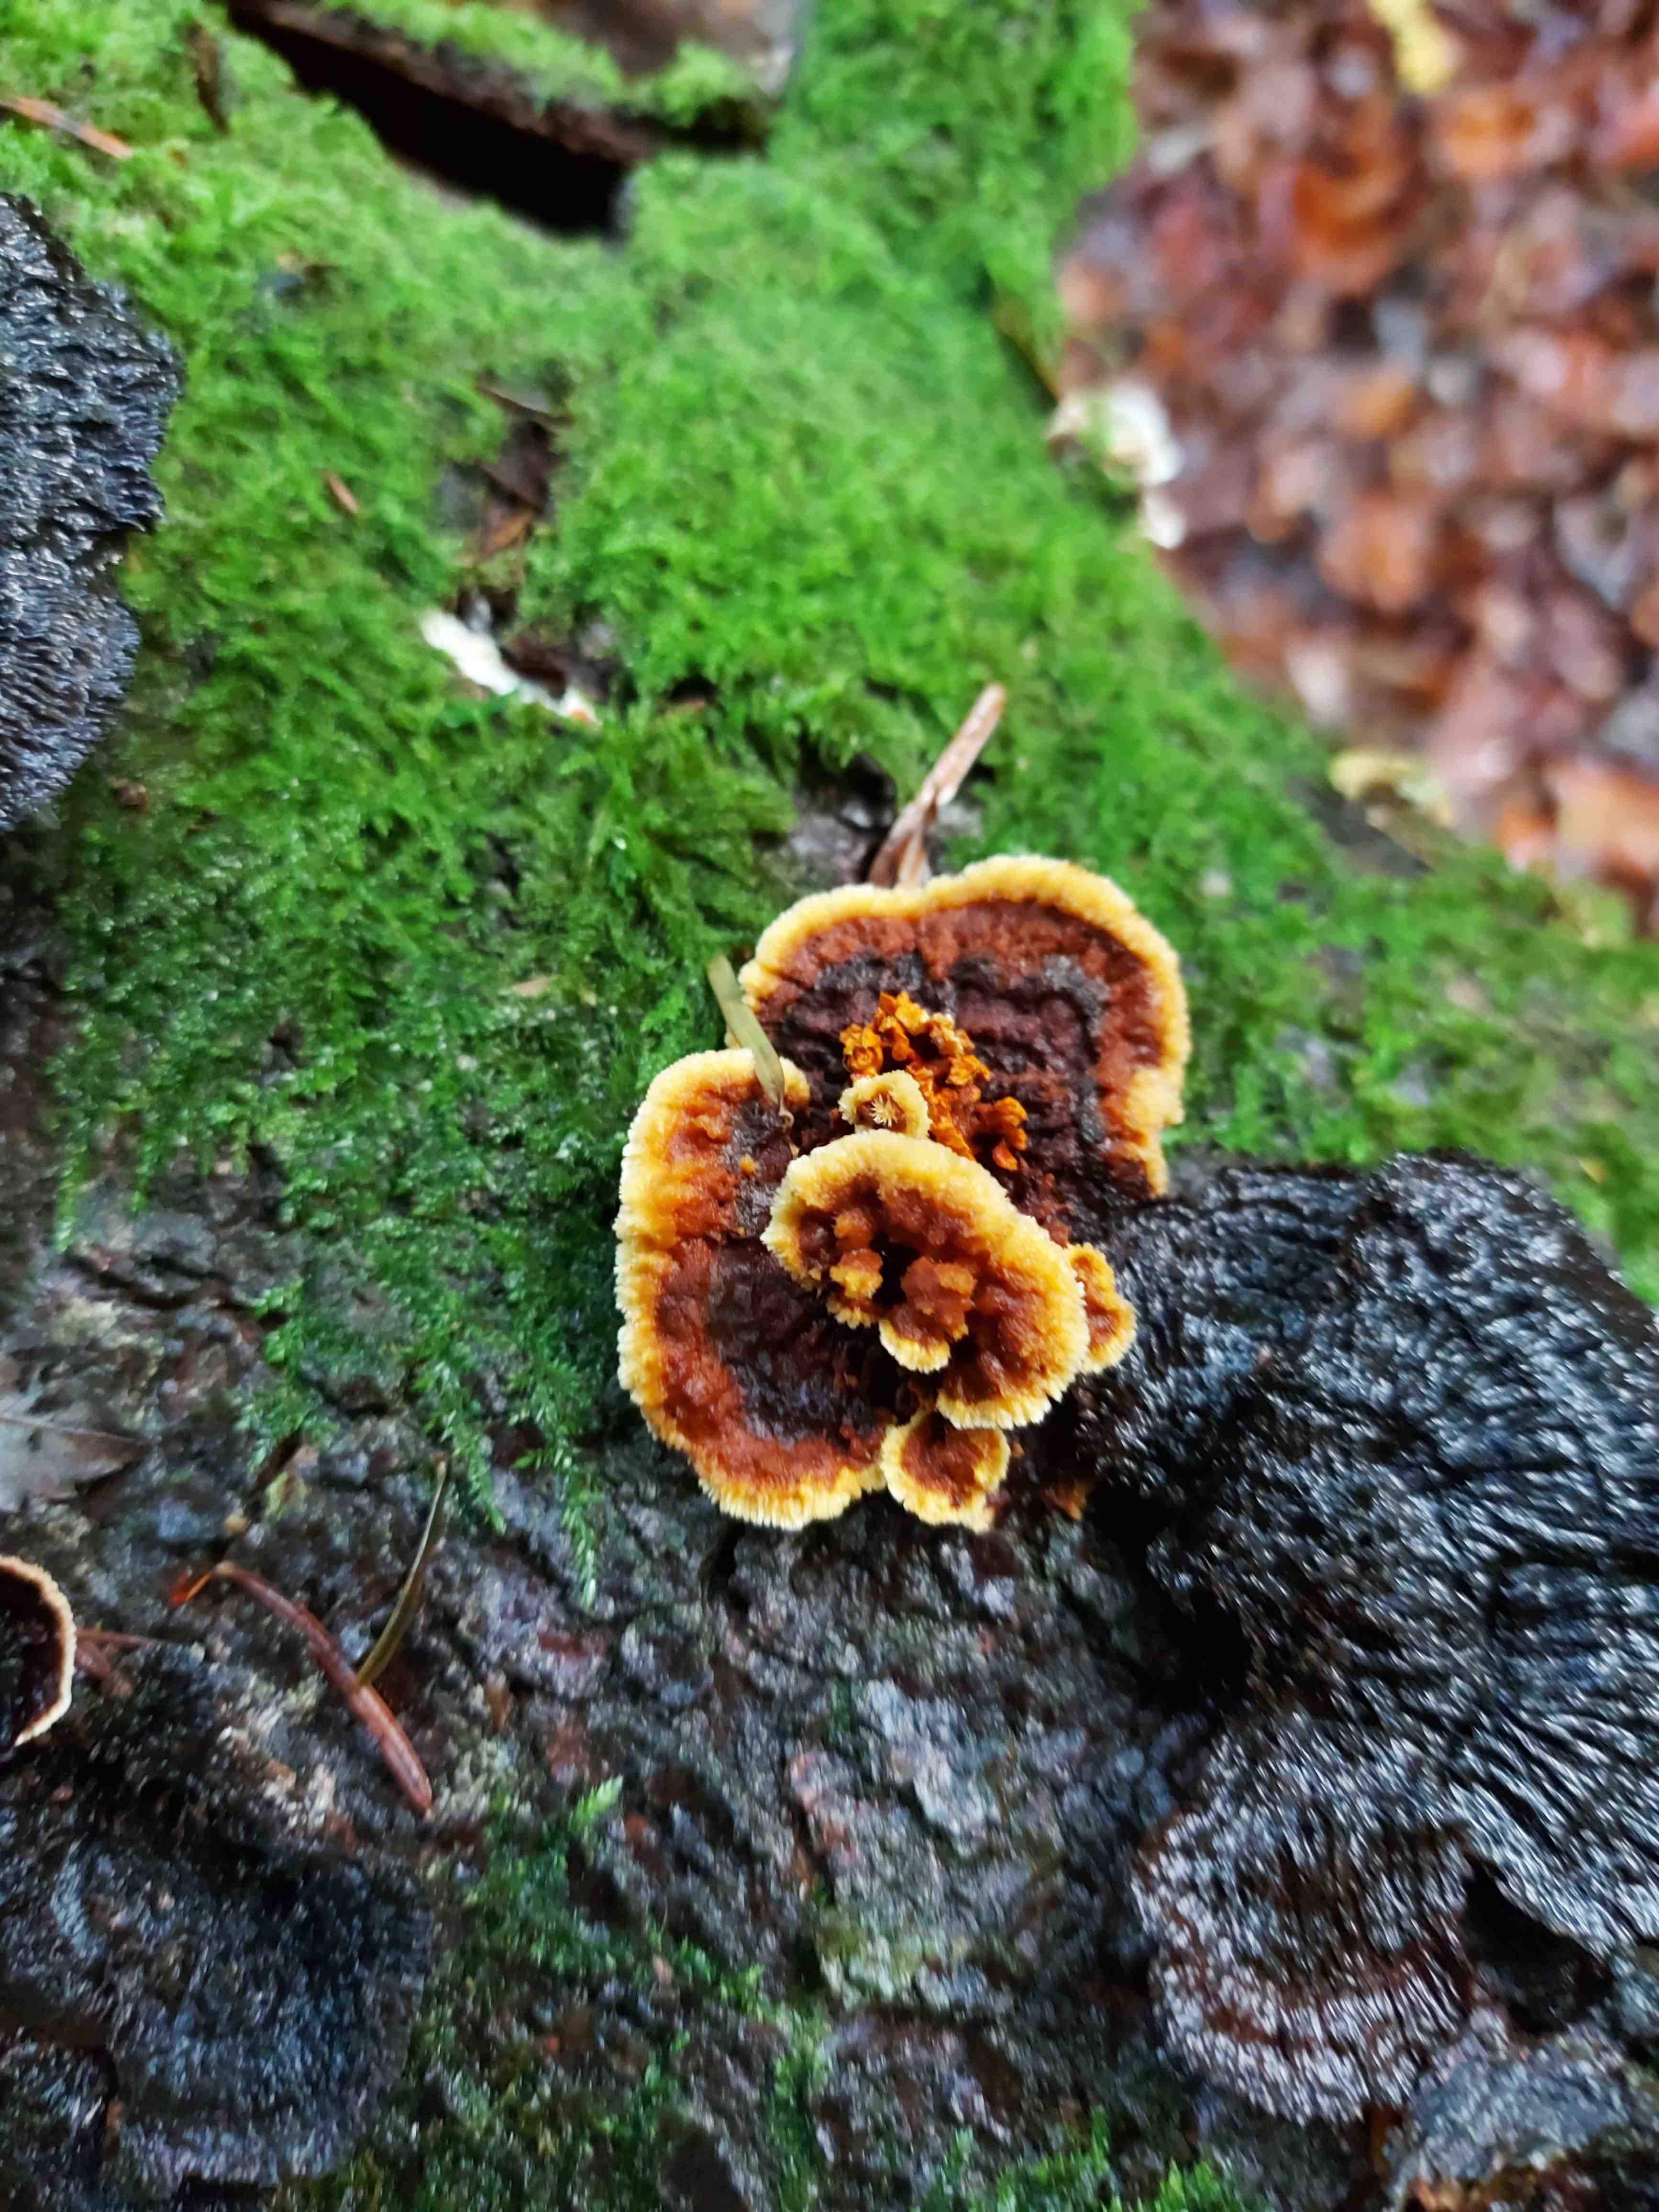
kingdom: Fungi
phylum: Basidiomycota
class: Agaricomycetes
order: Gloeophyllales
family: Gloeophyllaceae
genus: Gloeophyllum
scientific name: Gloeophyllum sepiarium
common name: fyrre-korkhat
